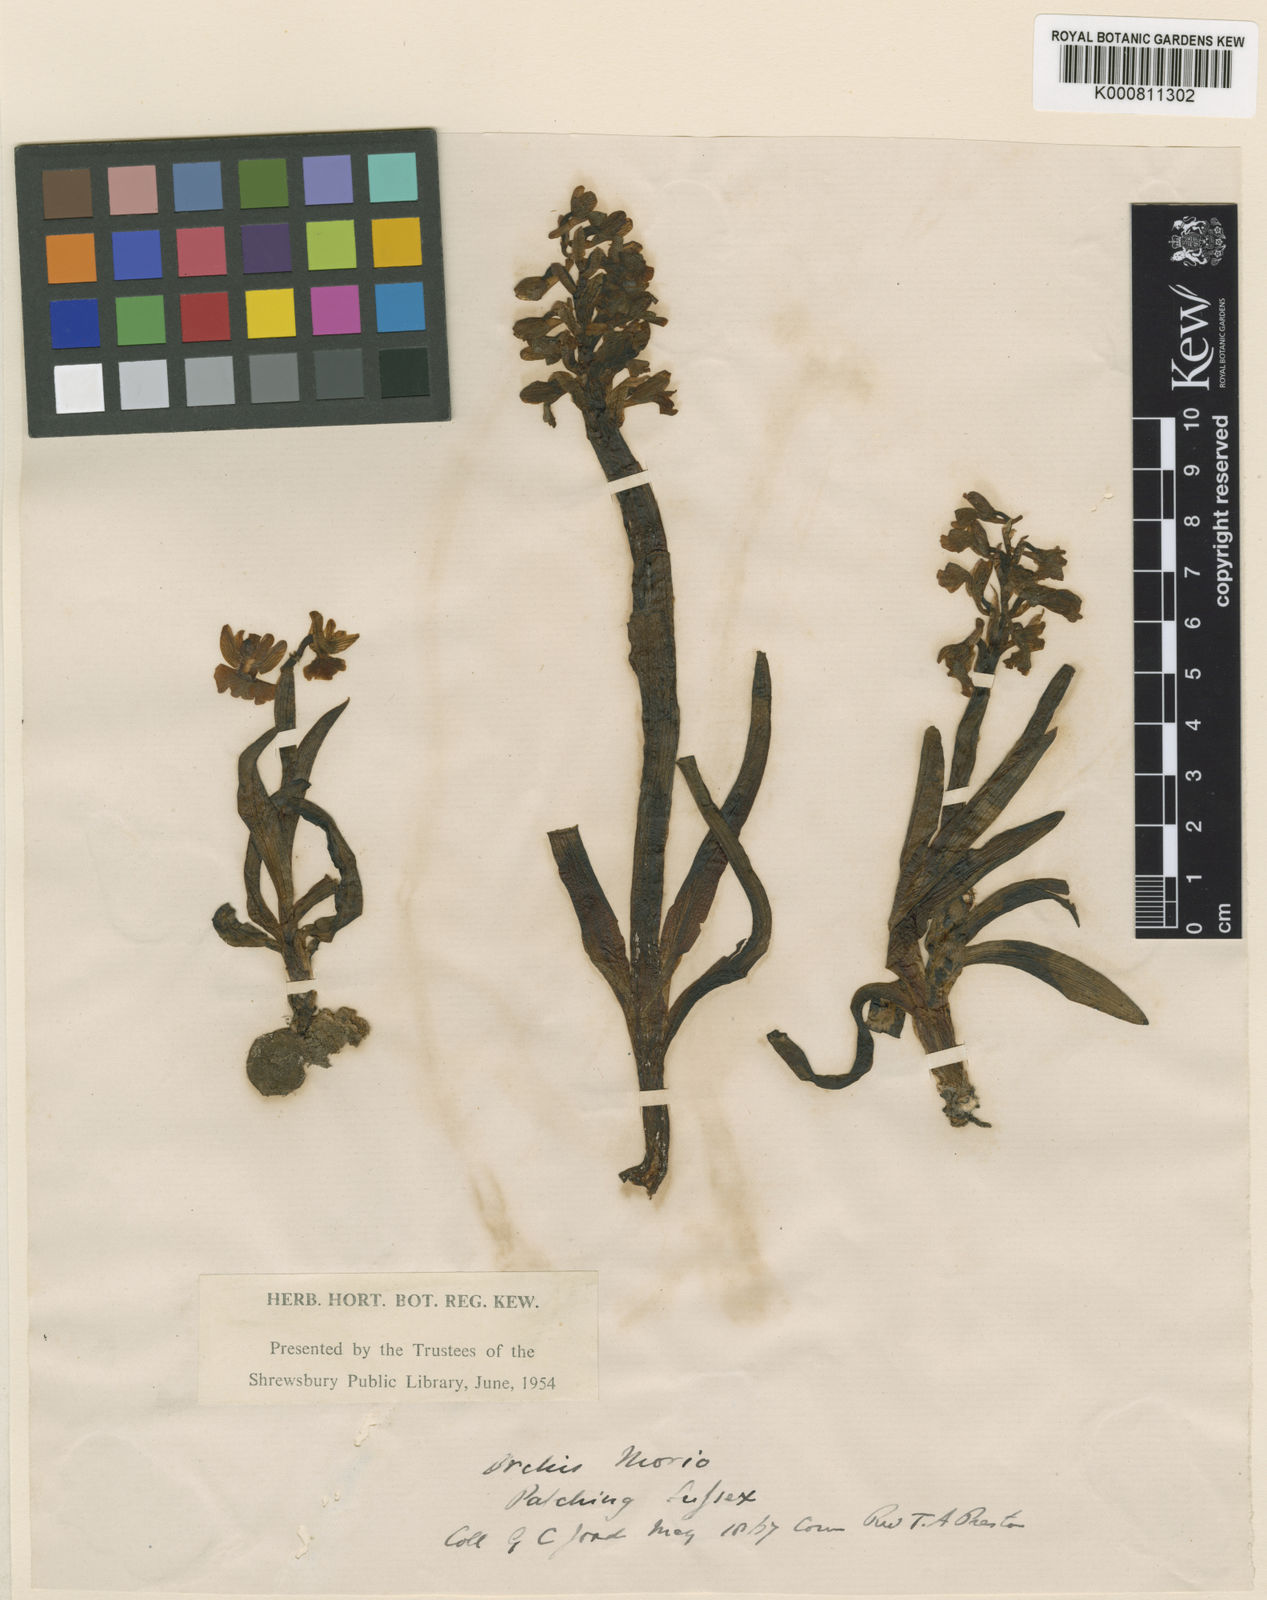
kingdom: Plantae
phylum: Tracheophyta
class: Liliopsida
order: Asparagales
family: Orchidaceae
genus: Anacamptis
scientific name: Anacamptis morio
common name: Green-winged orchid
